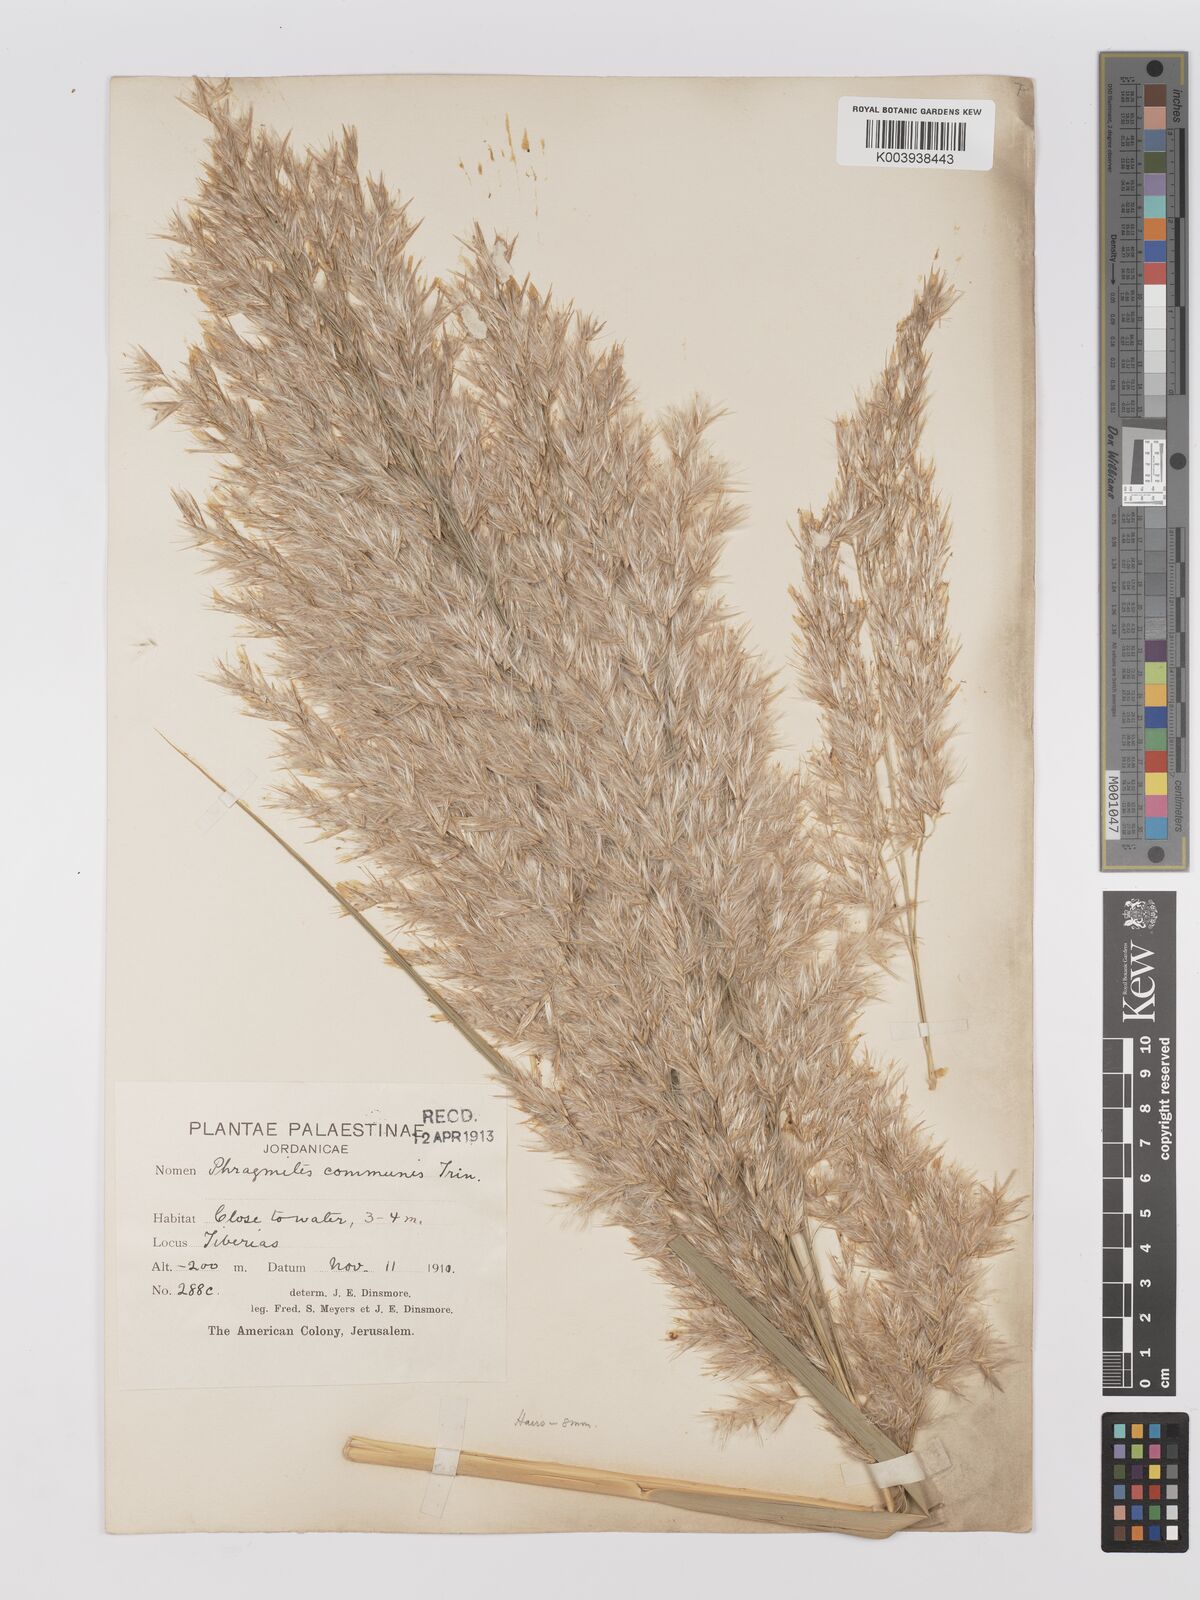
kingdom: Plantae
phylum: Tracheophyta
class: Liliopsida
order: Poales
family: Poaceae
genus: Phragmites
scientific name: Phragmites australis
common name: Common reed
